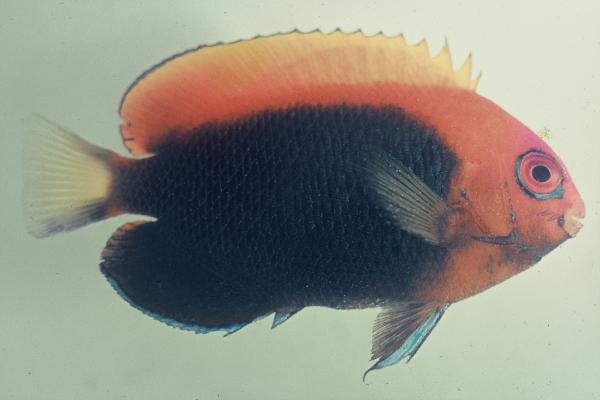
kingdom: Animalia
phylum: Chordata
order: Perciformes
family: Pomacanthidae
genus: Centropyge
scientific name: Centropyge acanthops
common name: African pygmy angelfish
